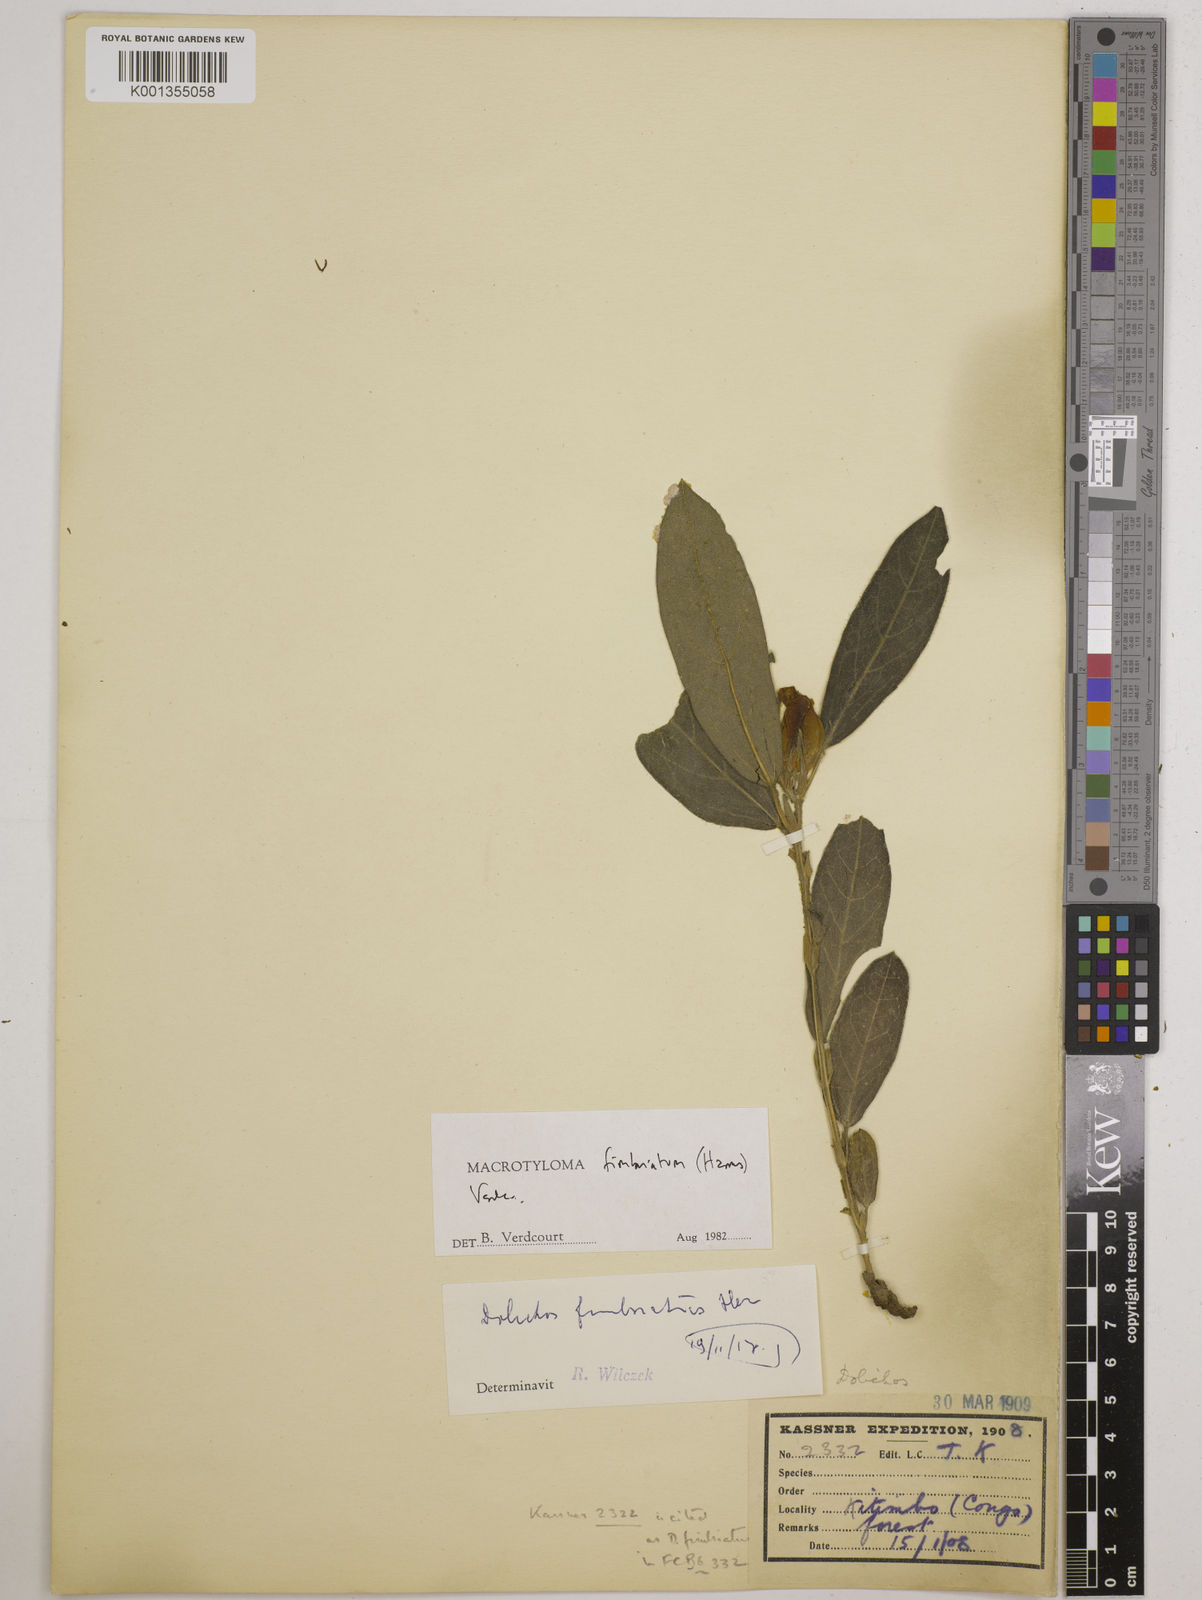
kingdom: Plantae
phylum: Tracheophyta
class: Magnoliopsida
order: Fabales
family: Fabaceae
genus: Macrotyloma
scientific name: Macrotyloma fimbriatum
